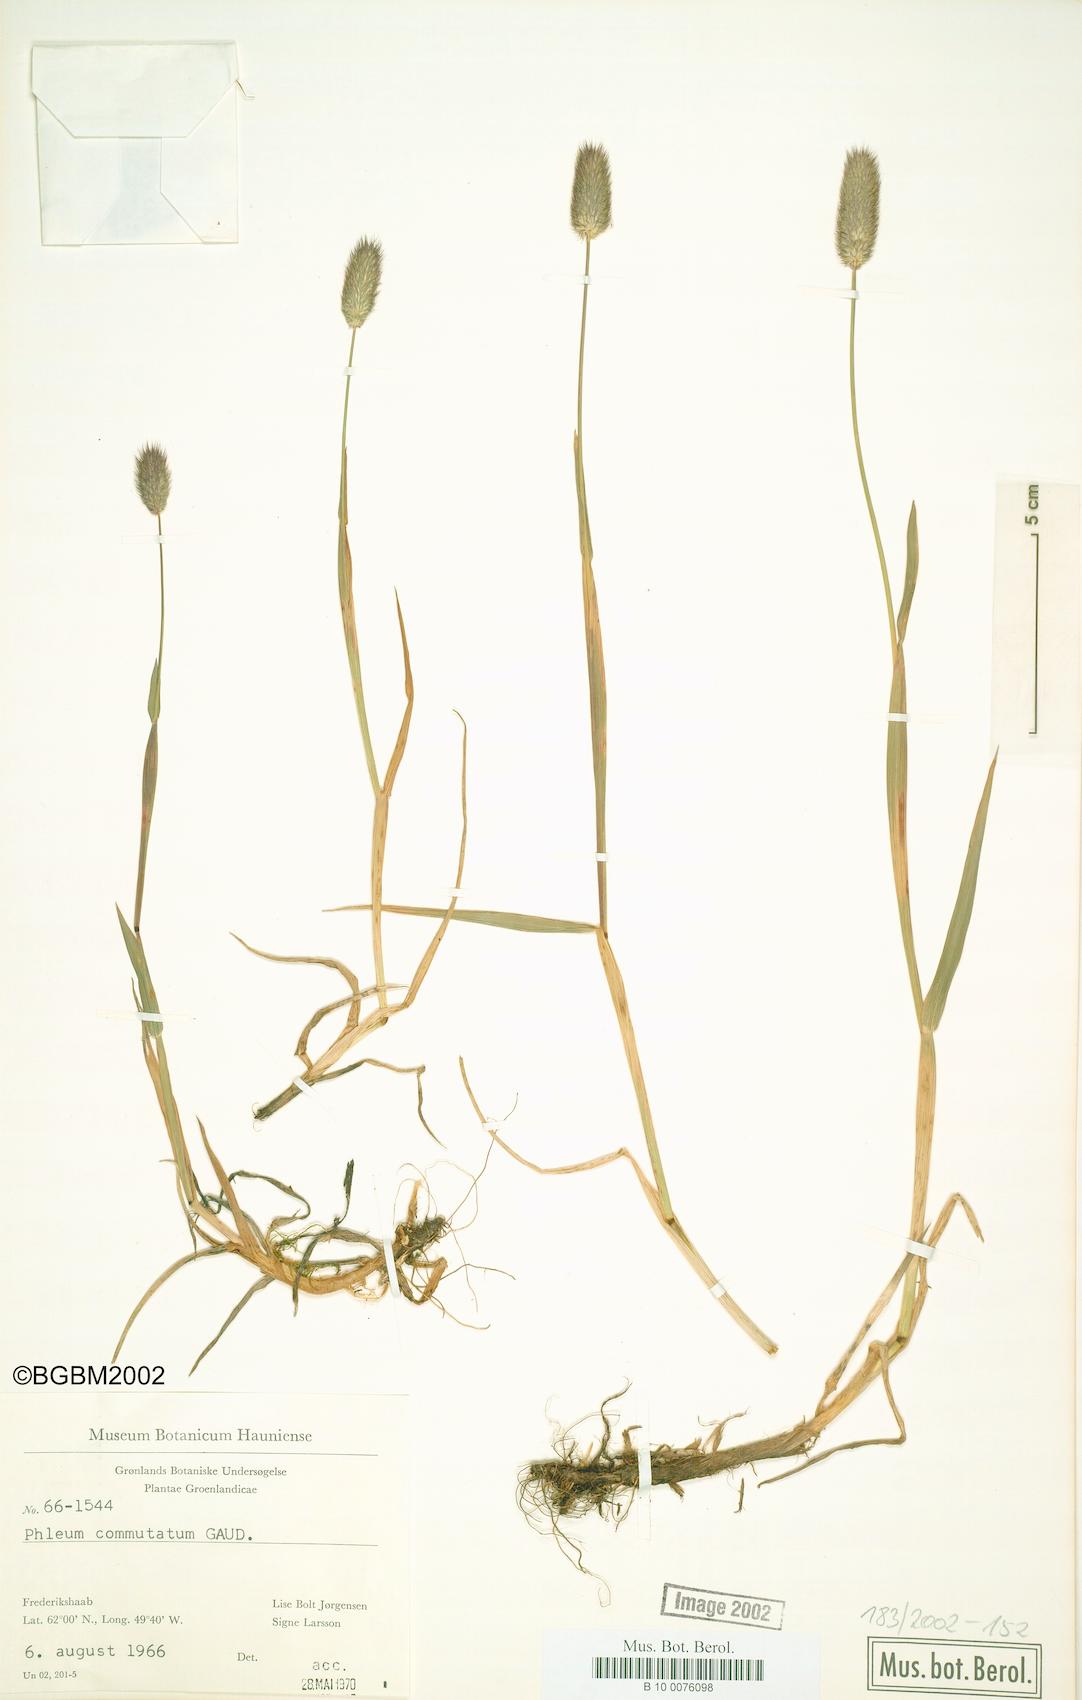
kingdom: Plantae
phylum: Tracheophyta
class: Liliopsida
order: Poales
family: Poaceae
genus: Phleum
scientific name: Phleum alpinum
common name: Alpine cat's-tail
